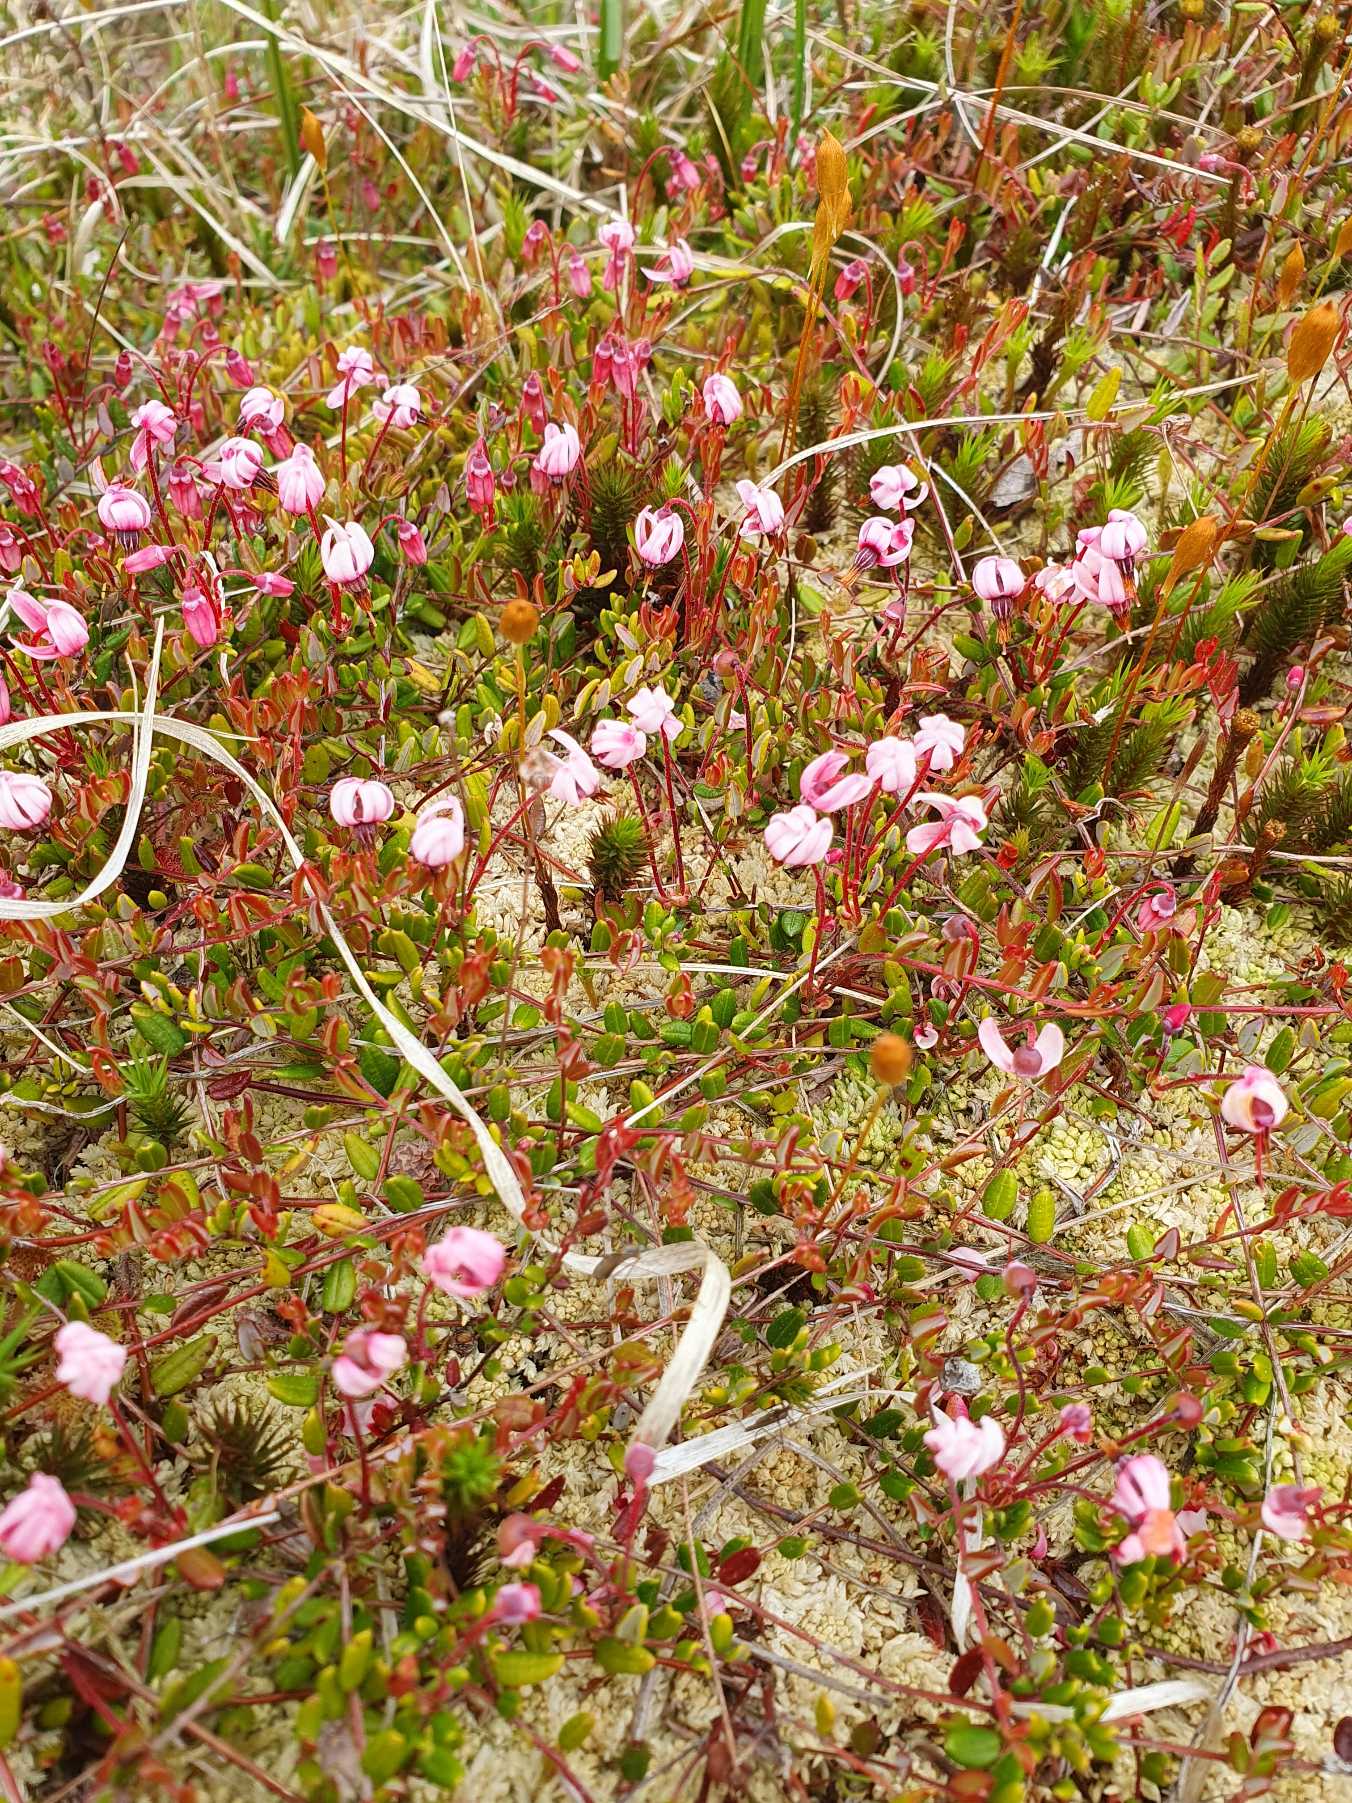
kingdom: Plantae
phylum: Tracheophyta
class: Magnoliopsida
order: Ericales
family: Ericaceae
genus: Vaccinium
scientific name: Vaccinium oxycoccos
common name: Tranebær
